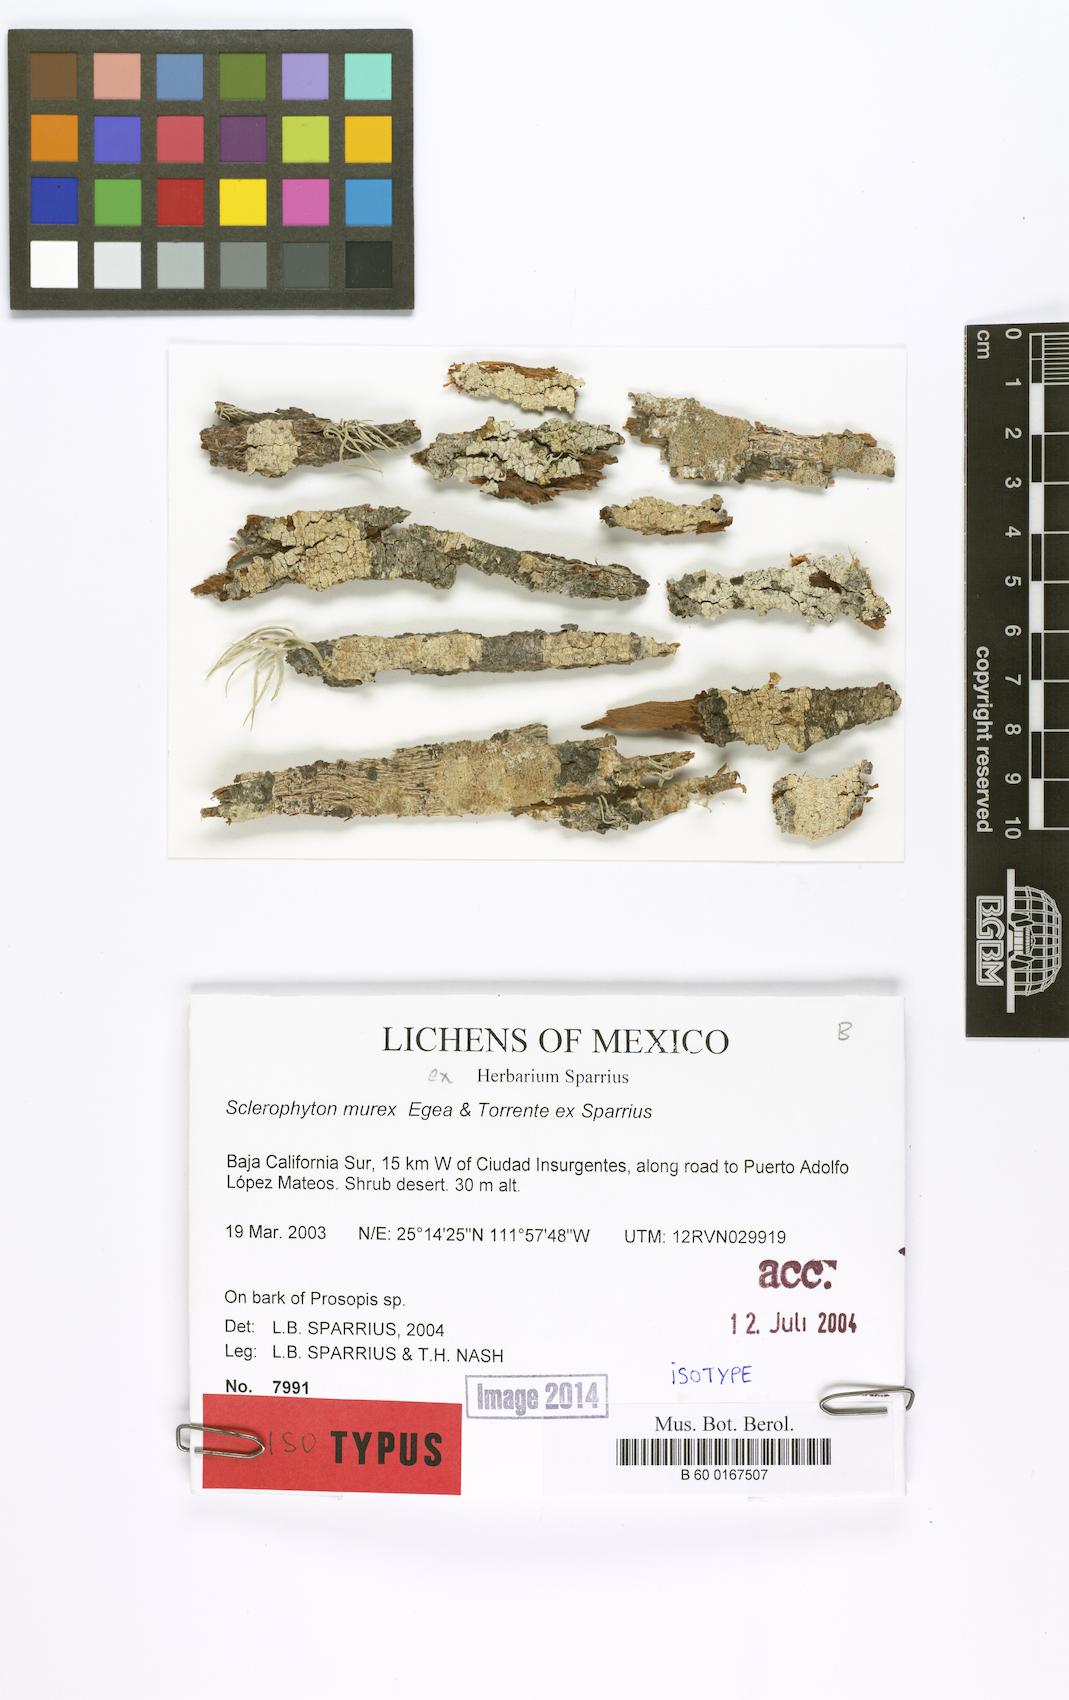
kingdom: Fungi
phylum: Ascomycota
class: Arthoniomycetes
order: Arthoniales
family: Roccellographaceae
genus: Fulvophyton
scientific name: Fulvophyton murex
